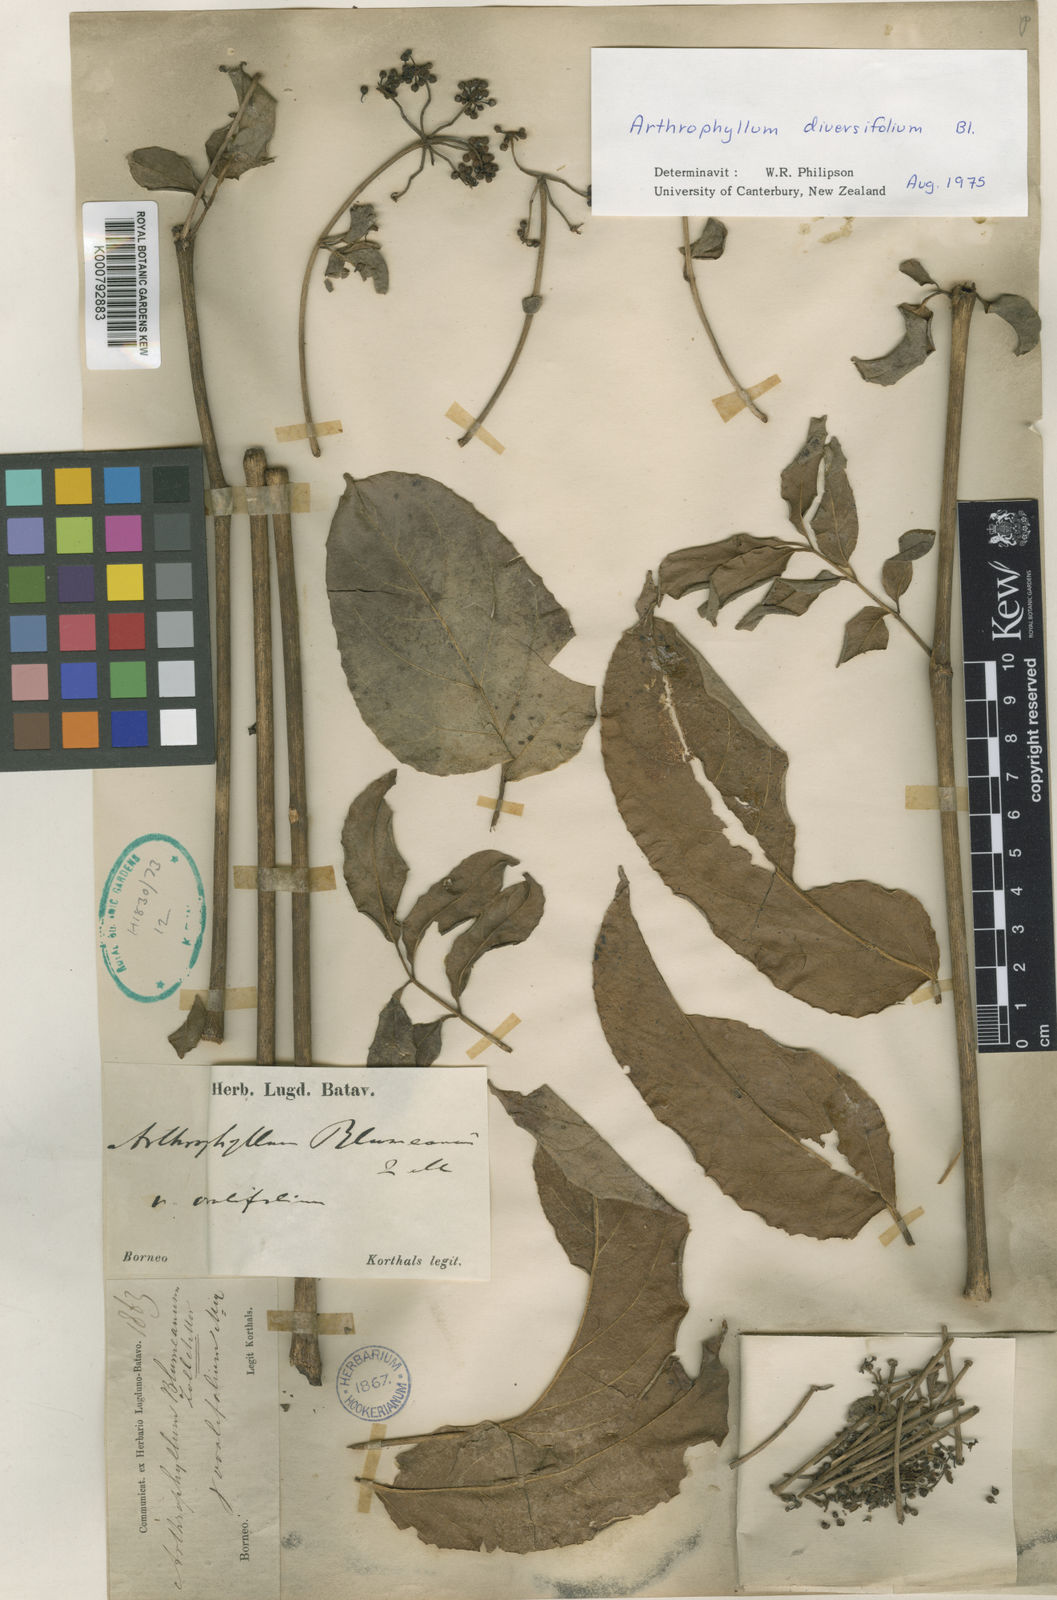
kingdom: Plantae
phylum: Tracheophyta
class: Magnoliopsida
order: Apiales
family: Araliaceae
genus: Polyscias
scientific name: Polyscias diversifolia
